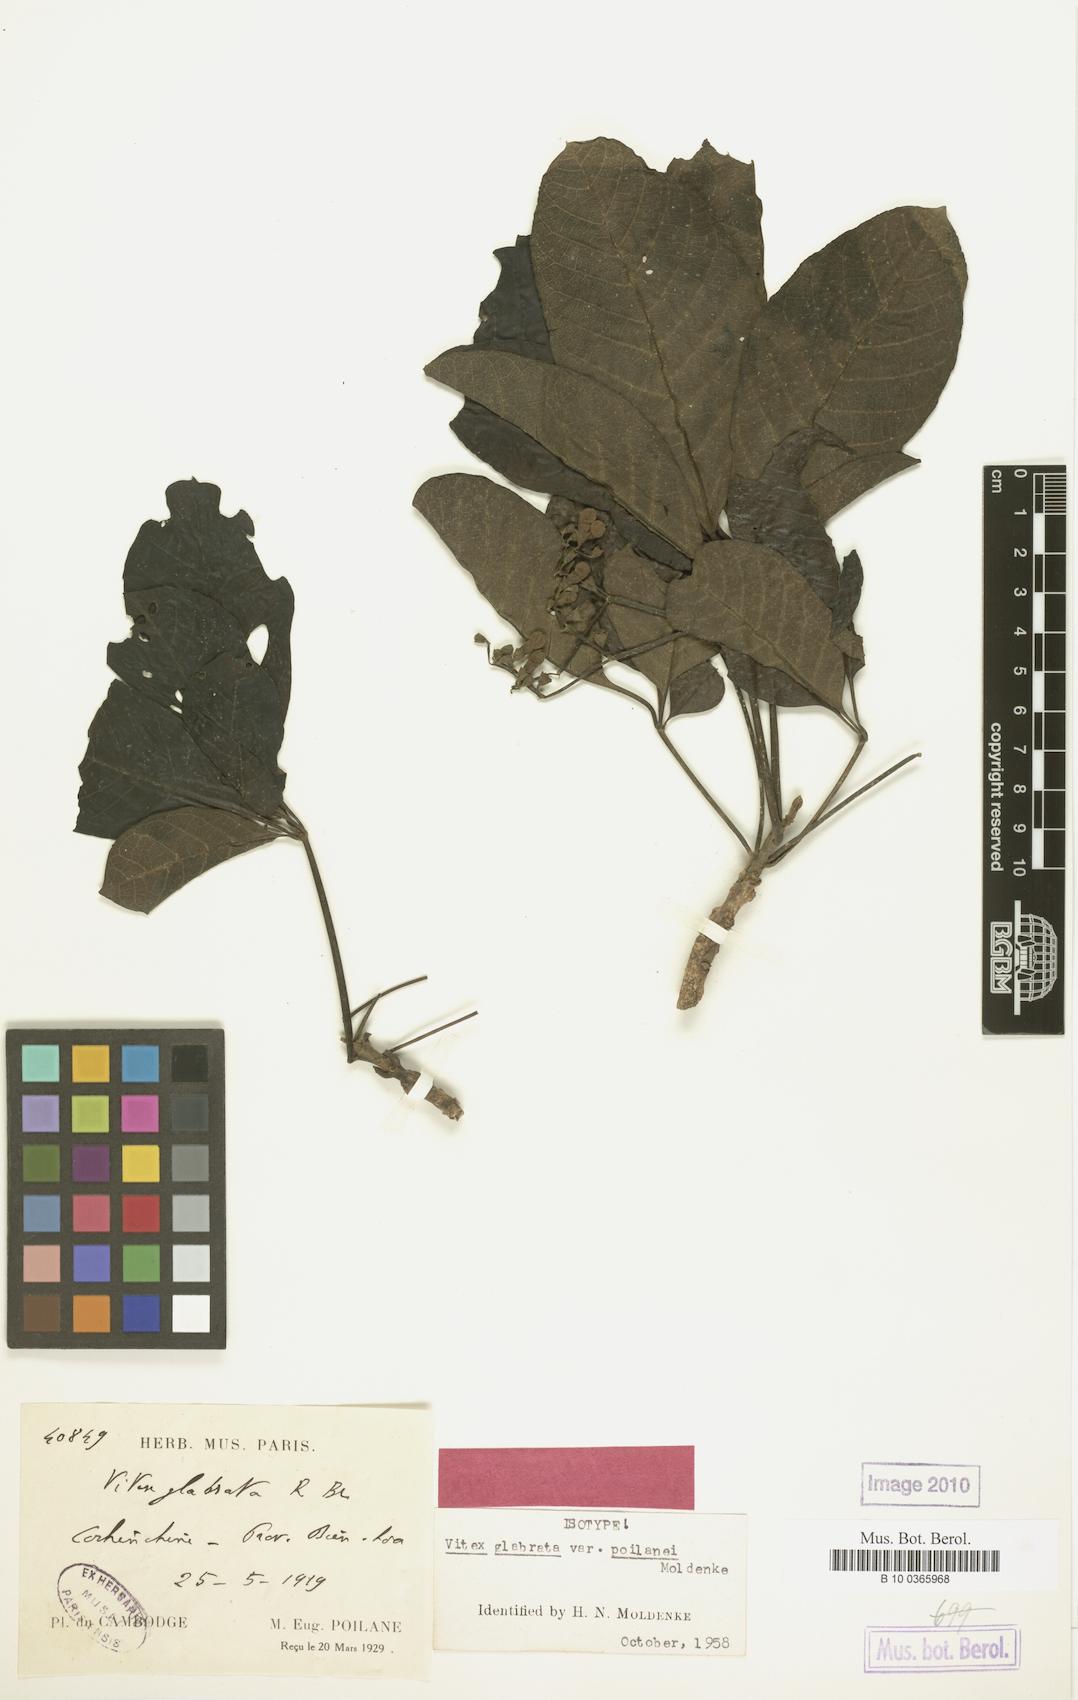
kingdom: Plantae
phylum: Tracheophyta
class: Magnoliopsida
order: Lamiales
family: Lamiaceae
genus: Vitex
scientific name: Vitex glabrata
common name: Smooth chastetree
